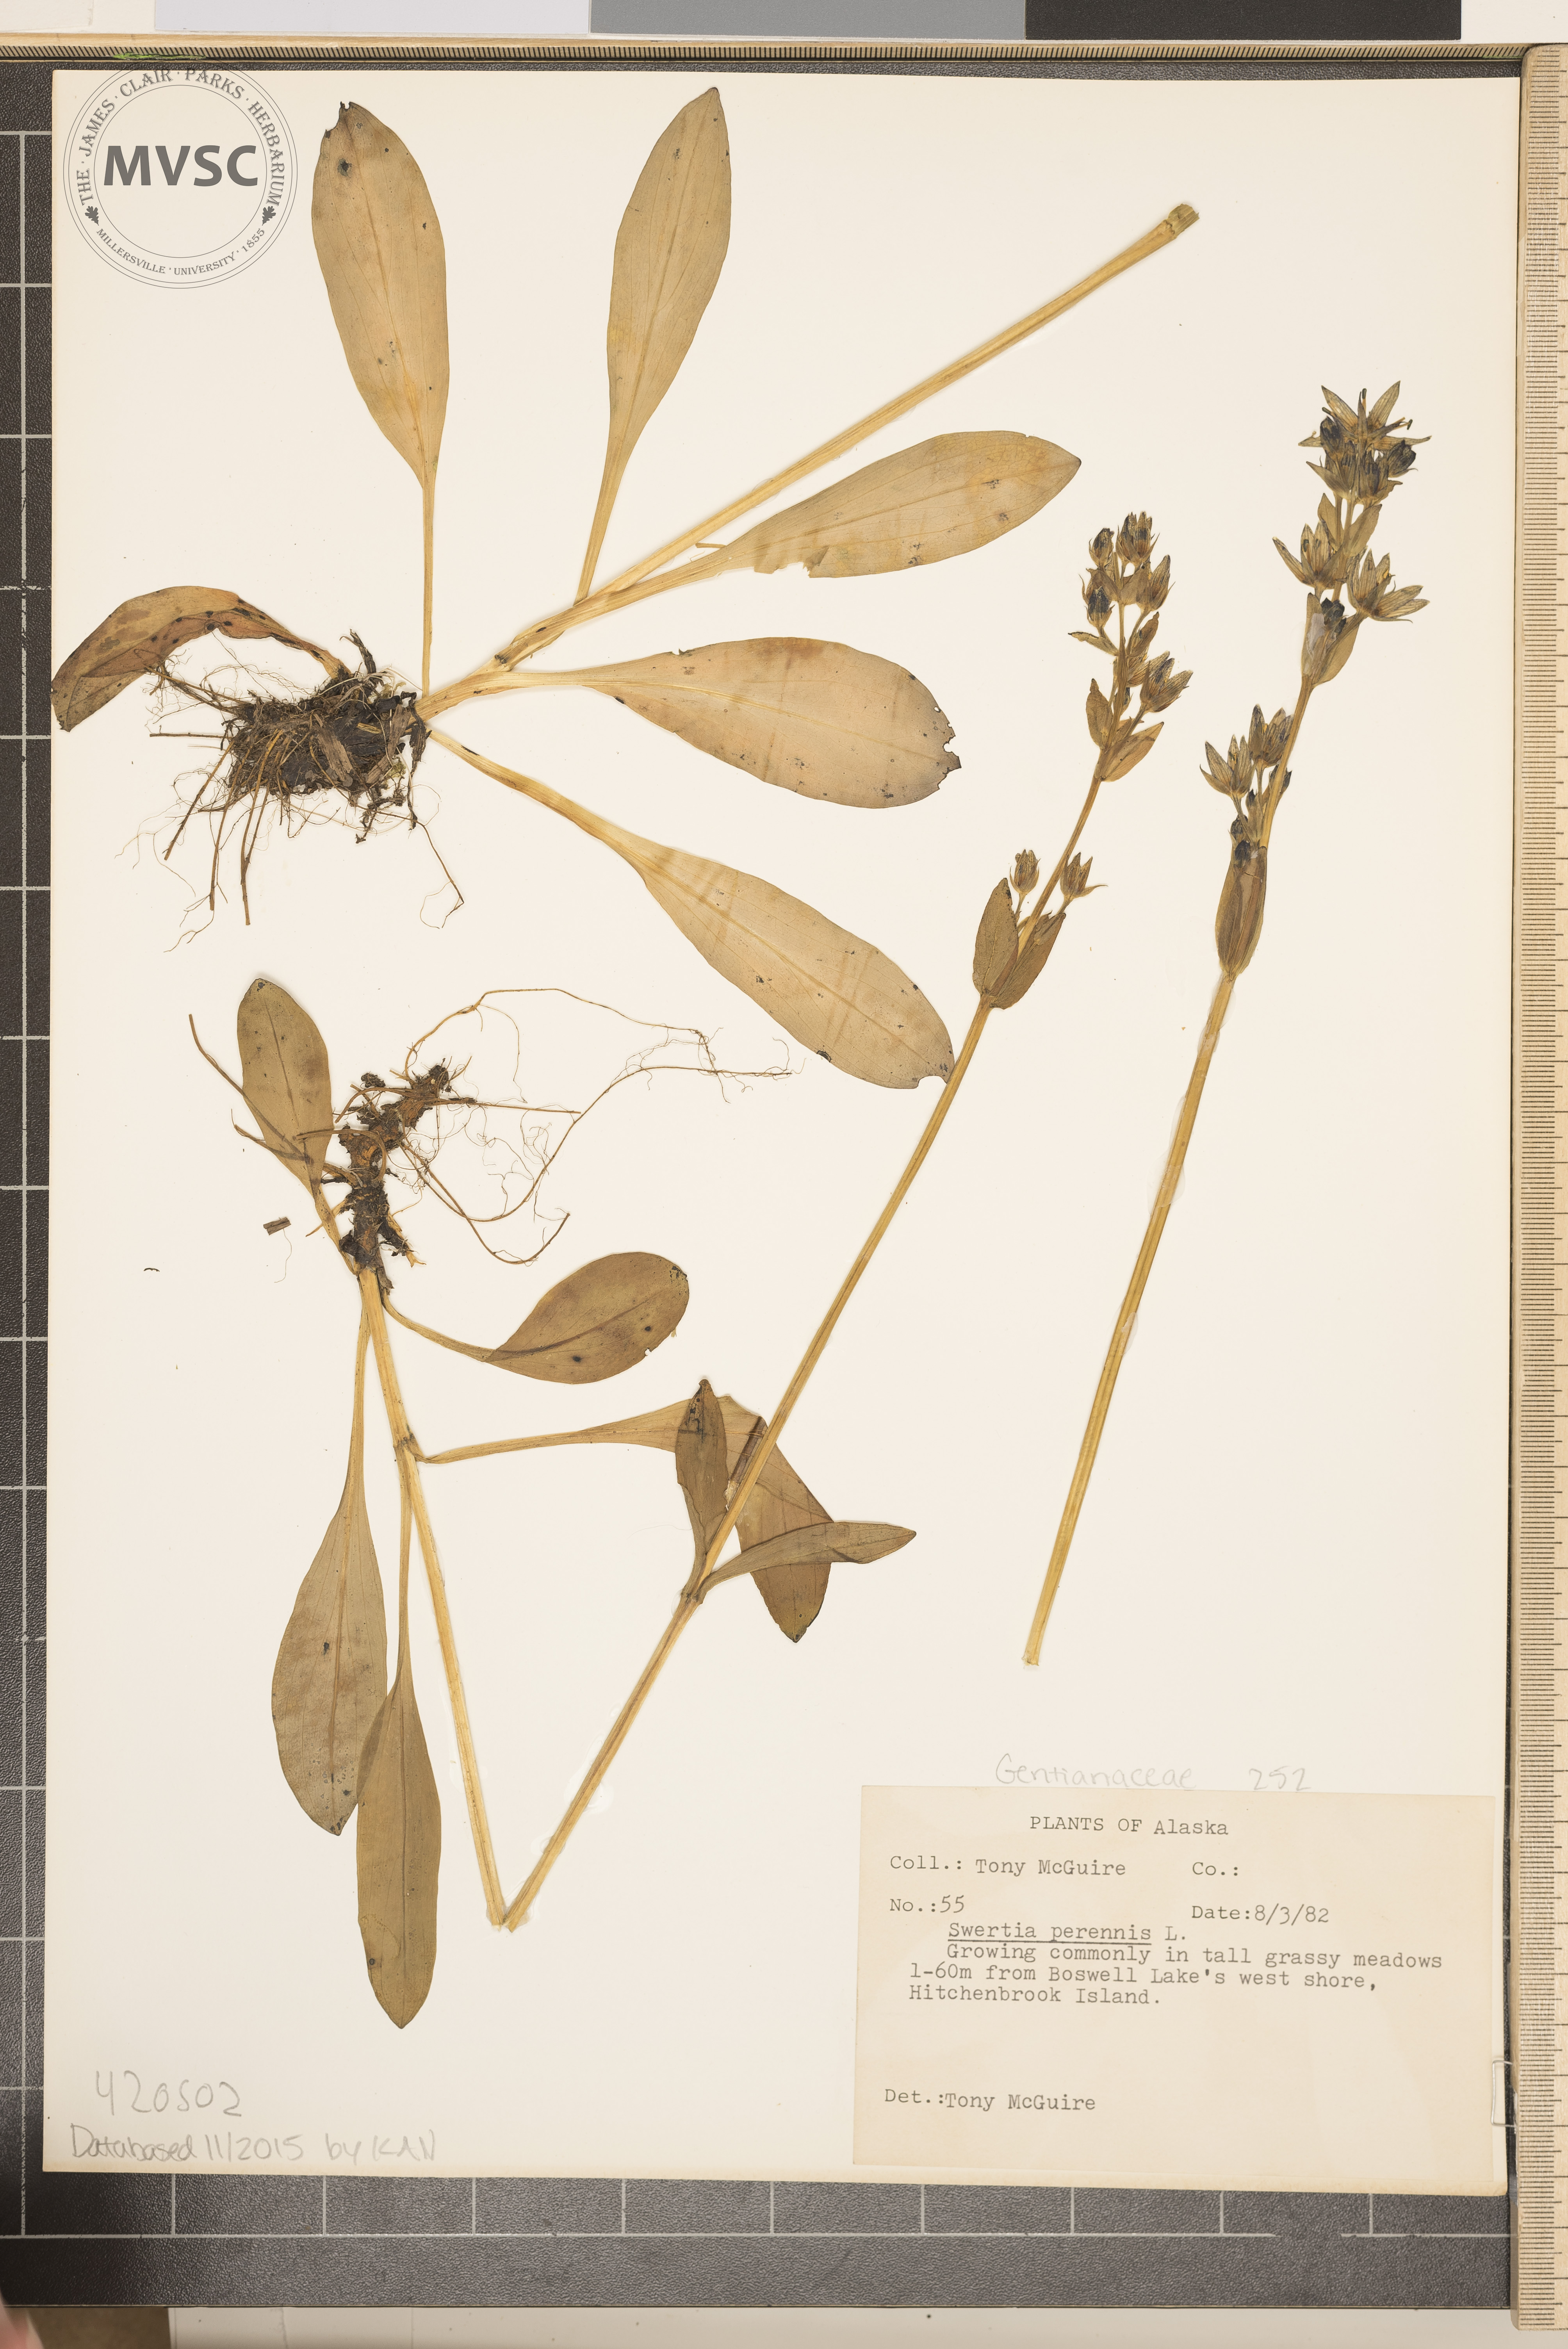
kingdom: Plantae
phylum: Tracheophyta
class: Magnoliopsida
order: Gentianales
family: Gentianaceae
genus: Swertia
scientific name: Swertia perennis
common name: Felwort
